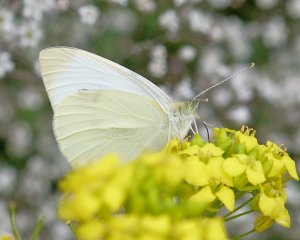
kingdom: Animalia
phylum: Arthropoda
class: Insecta
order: Lepidoptera
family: Pieridae
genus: Pieris
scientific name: Pieris rapae
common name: Cabbage White
